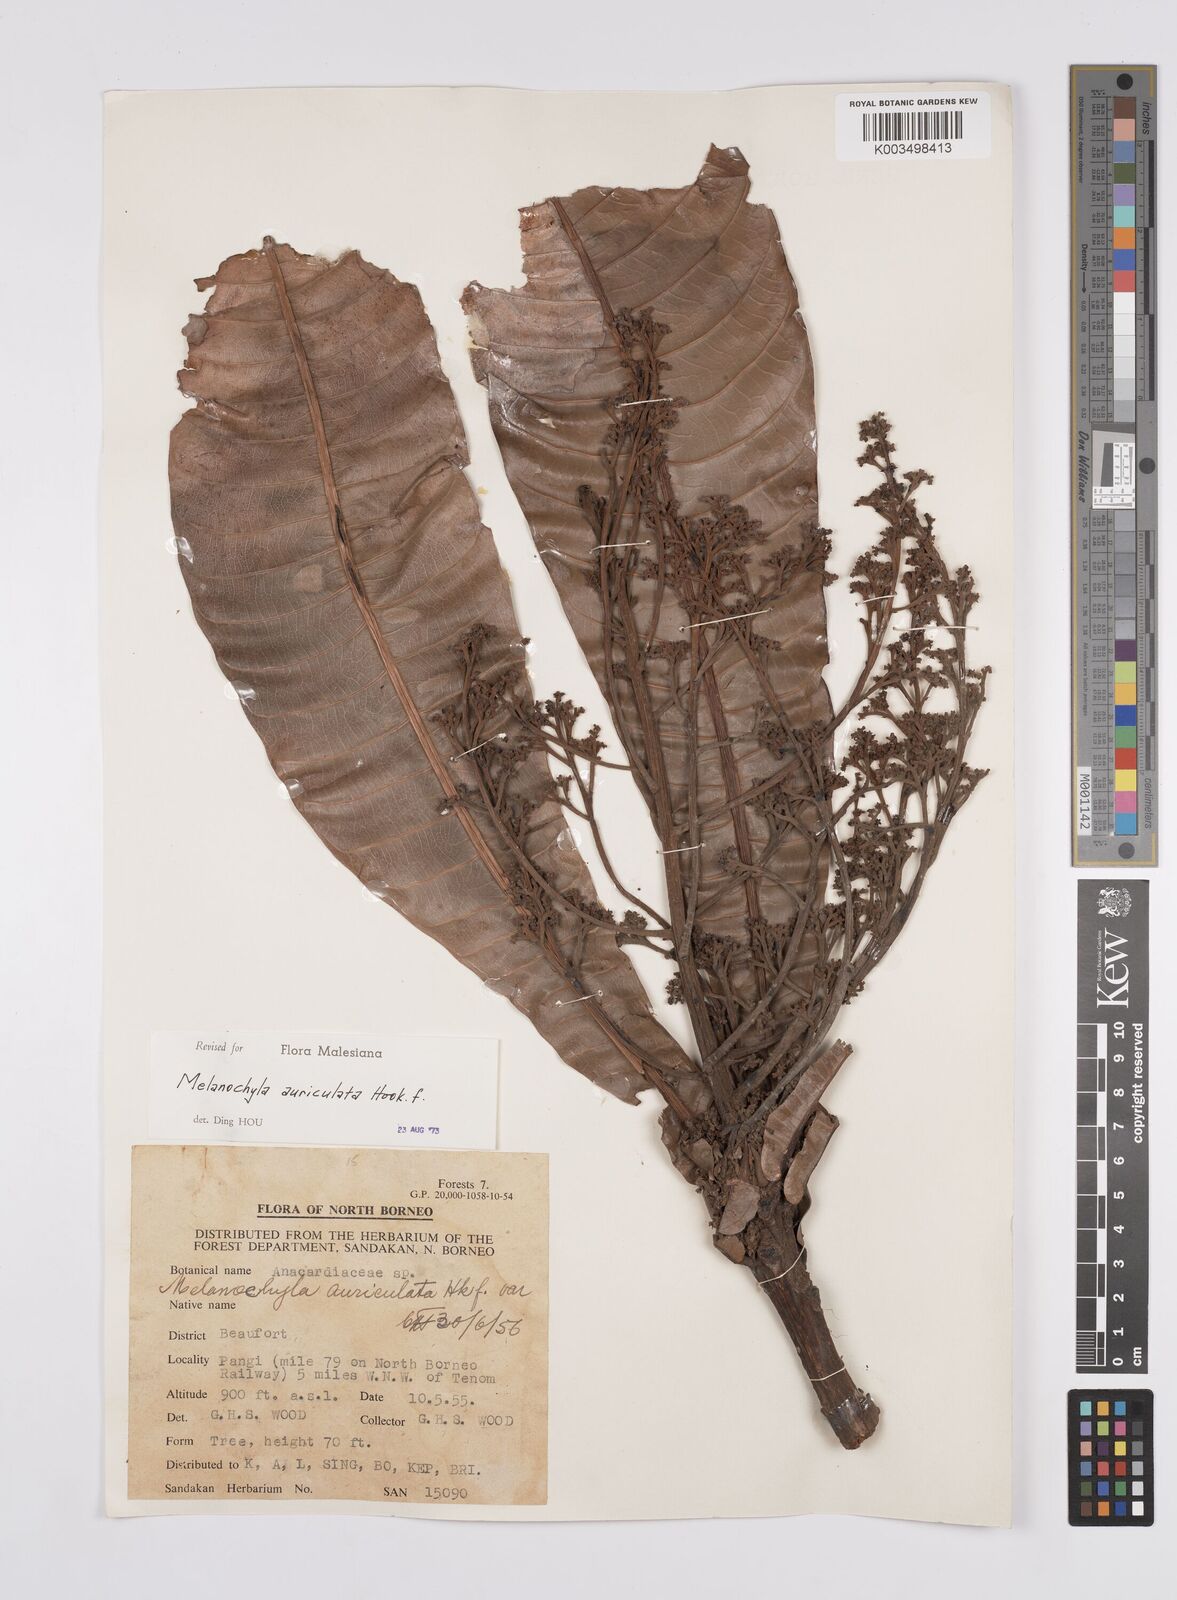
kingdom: Plantae
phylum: Tracheophyta
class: Magnoliopsida
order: Sapindales
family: Anacardiaceae
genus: Melanochyla
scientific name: Melanochyla auriculata
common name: Swamp rengas
